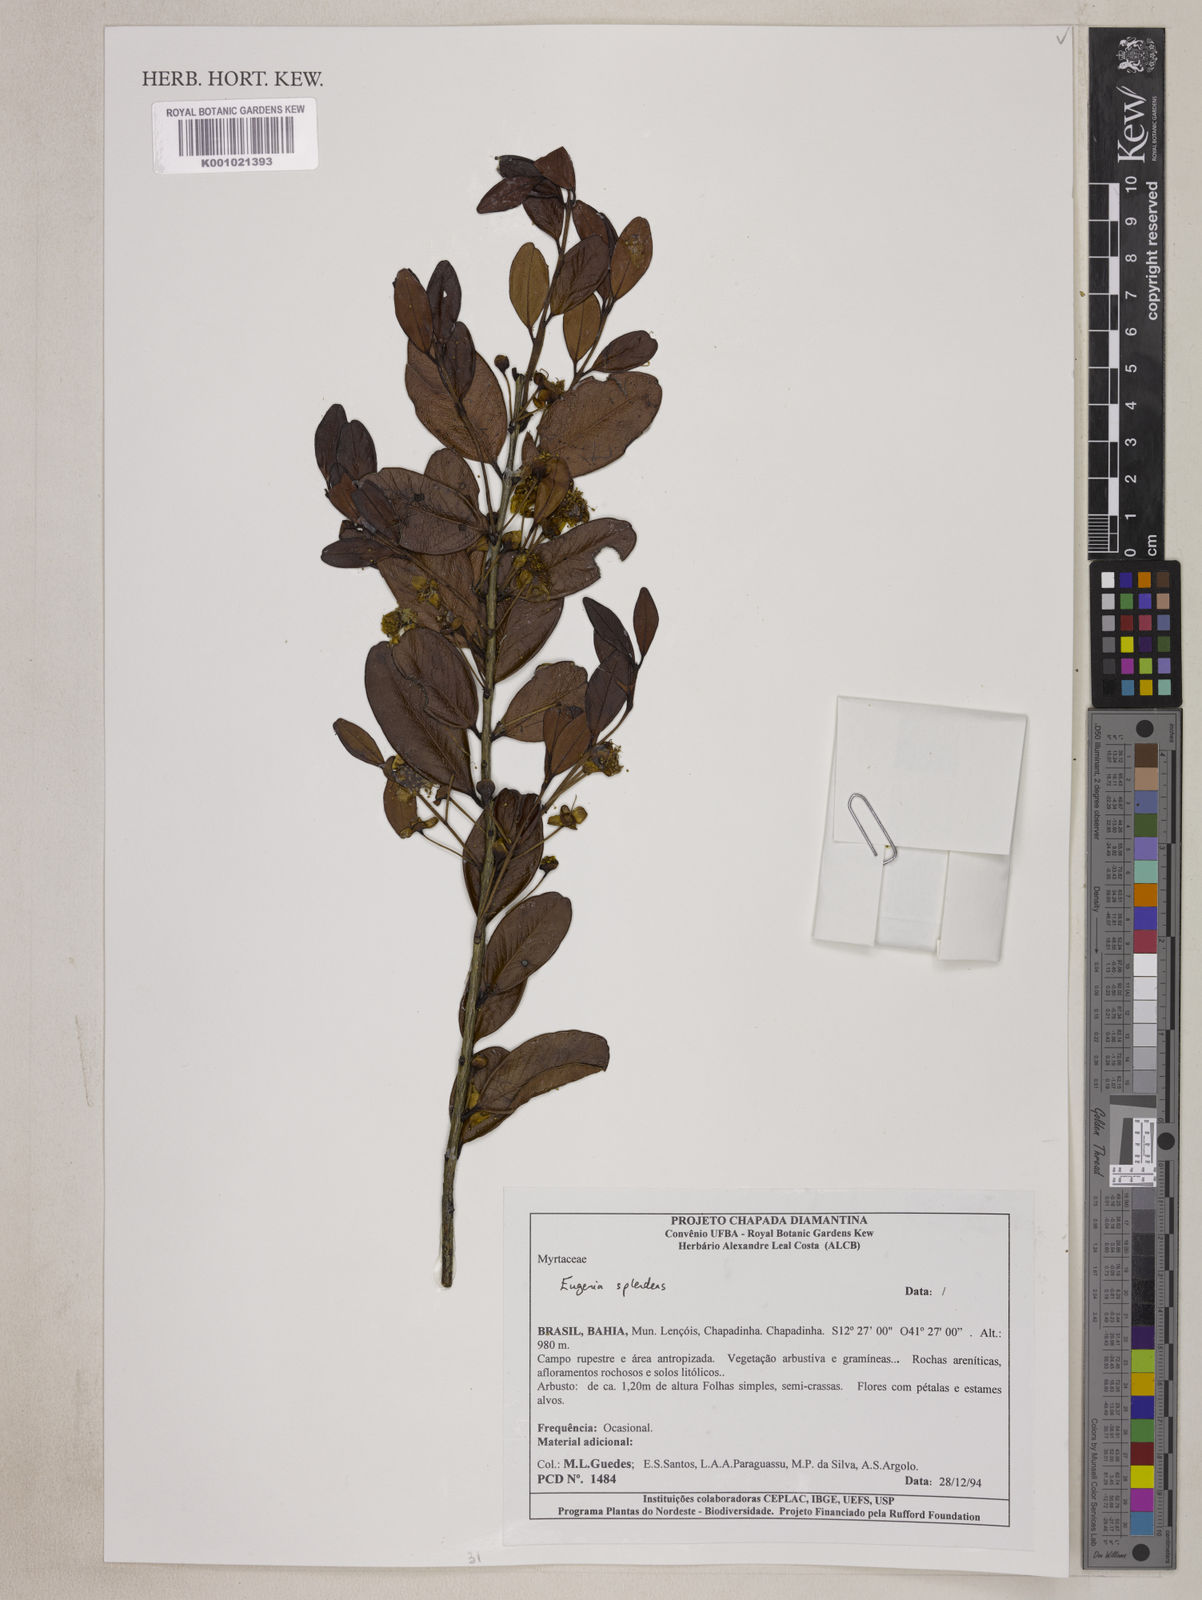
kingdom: Plantae
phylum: Tracheophyta
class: Magnoliopsida
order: Myrtales
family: Myrtaceae
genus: Eugenia
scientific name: Eugenia splendens
